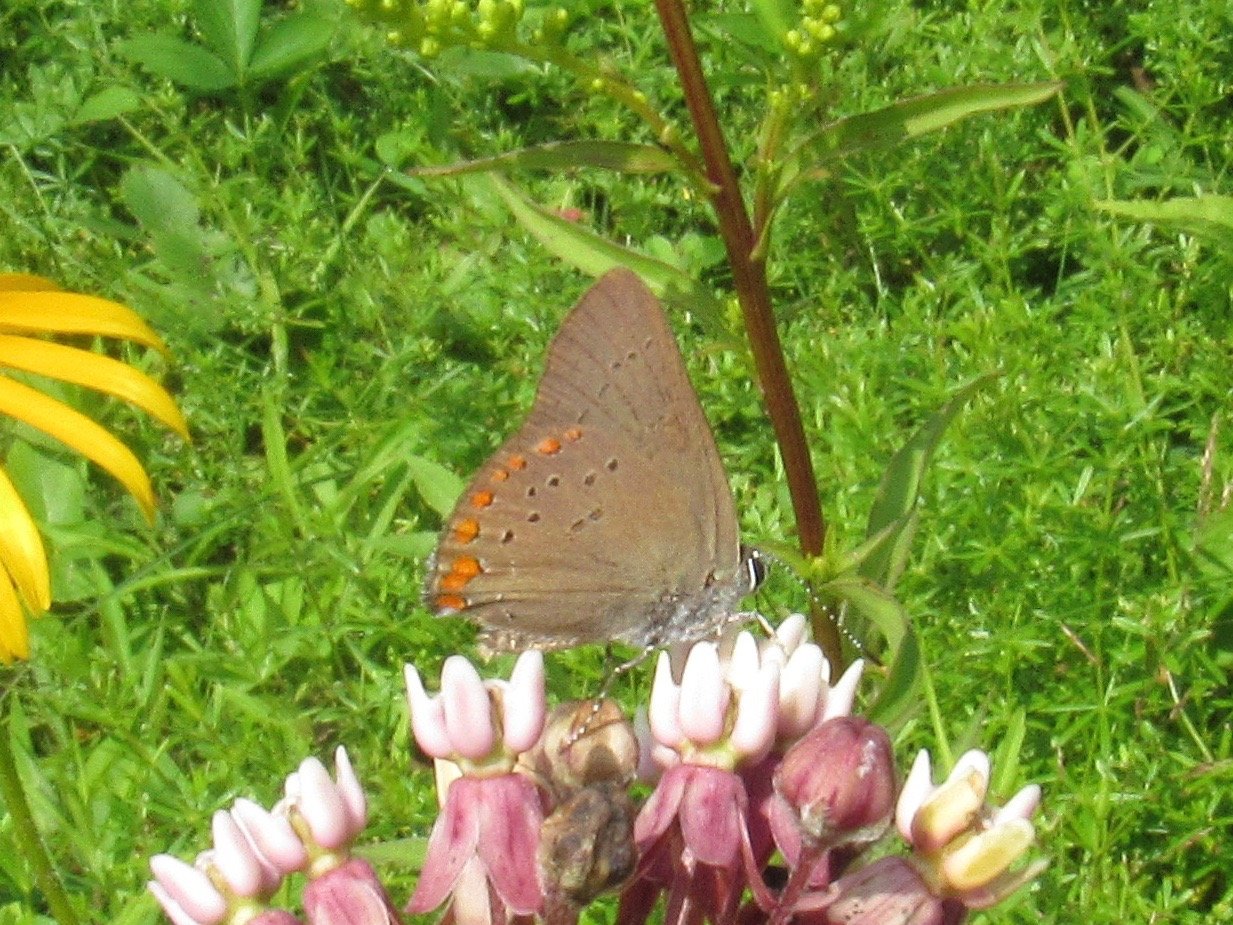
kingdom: Animalia
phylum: Arthropoda
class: Insecta
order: Lepidoptera
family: Lycaenidae
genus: Harkenclenus
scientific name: Harkenclenus titus
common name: Coral Hairstreak
